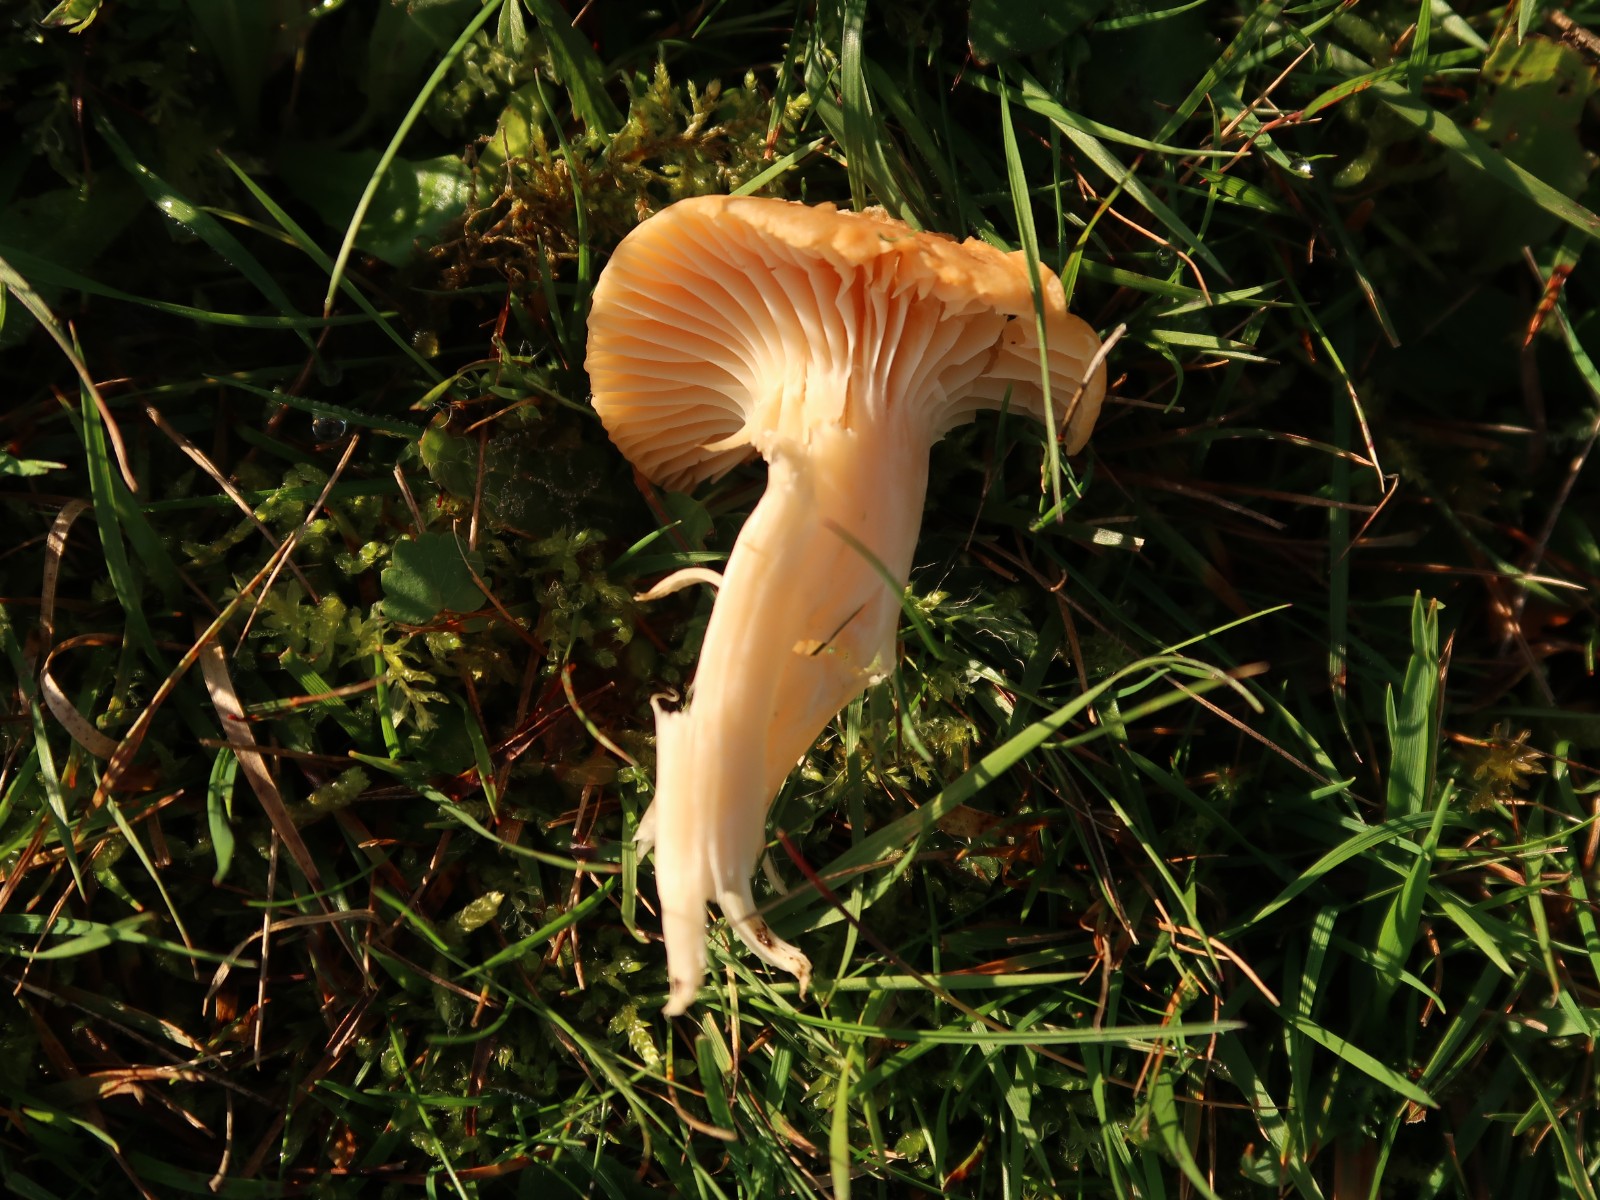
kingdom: Fungi
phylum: Basidiomycota
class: Agaricomycetes
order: Agaricales
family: Hygrophoraceae
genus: Cuphophyllus
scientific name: Cuphophyllus pratensis
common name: eng-vokshat
